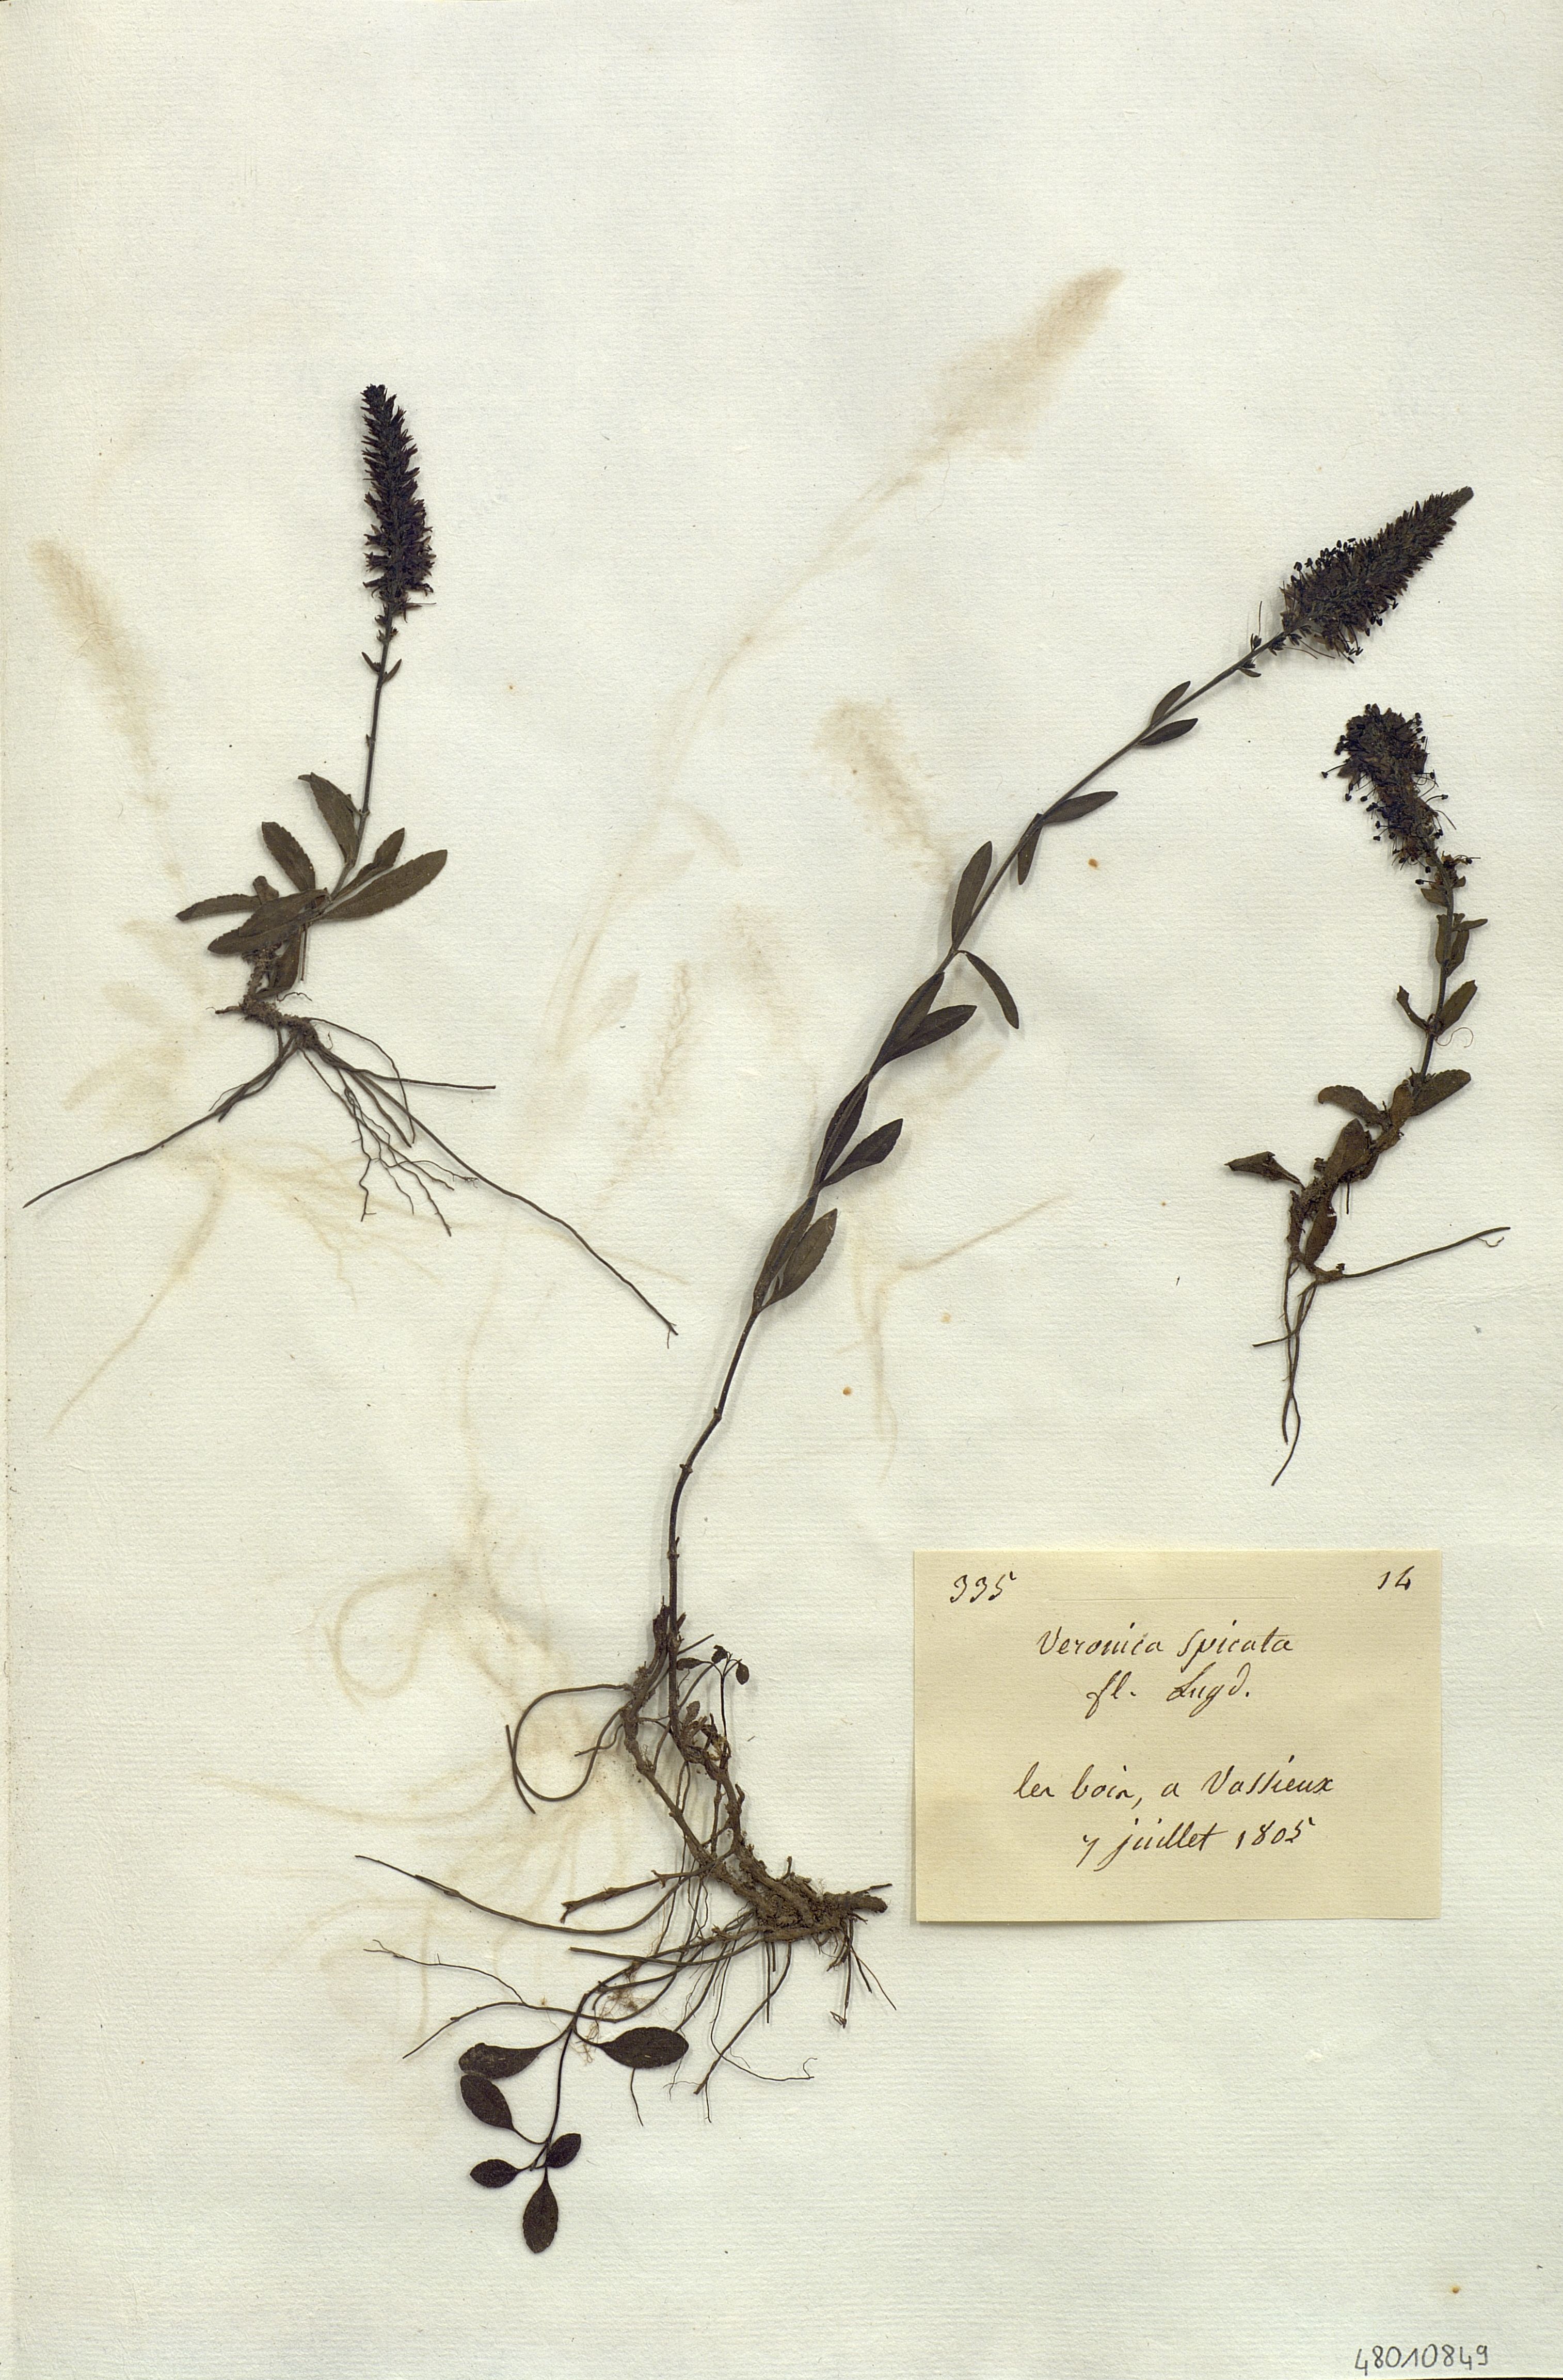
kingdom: Plantae
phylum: Tracheophyta
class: Magnoliopsida
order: Lamiales
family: Plantaginaceae
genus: Veronica
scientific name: Veronica spicata
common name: Spiked speedwell
